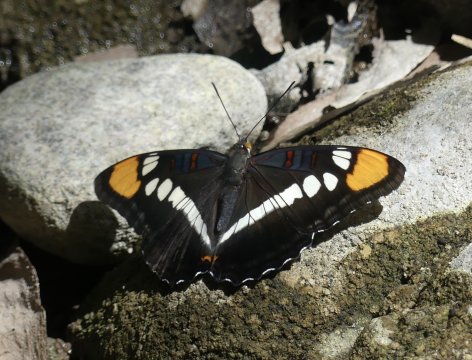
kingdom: Animalia
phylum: Arthropoda
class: Insecta
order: Lepidoptera
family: Nymphalidae
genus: Limenitis
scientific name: Limenitis bredowii
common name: Arizona Sister
